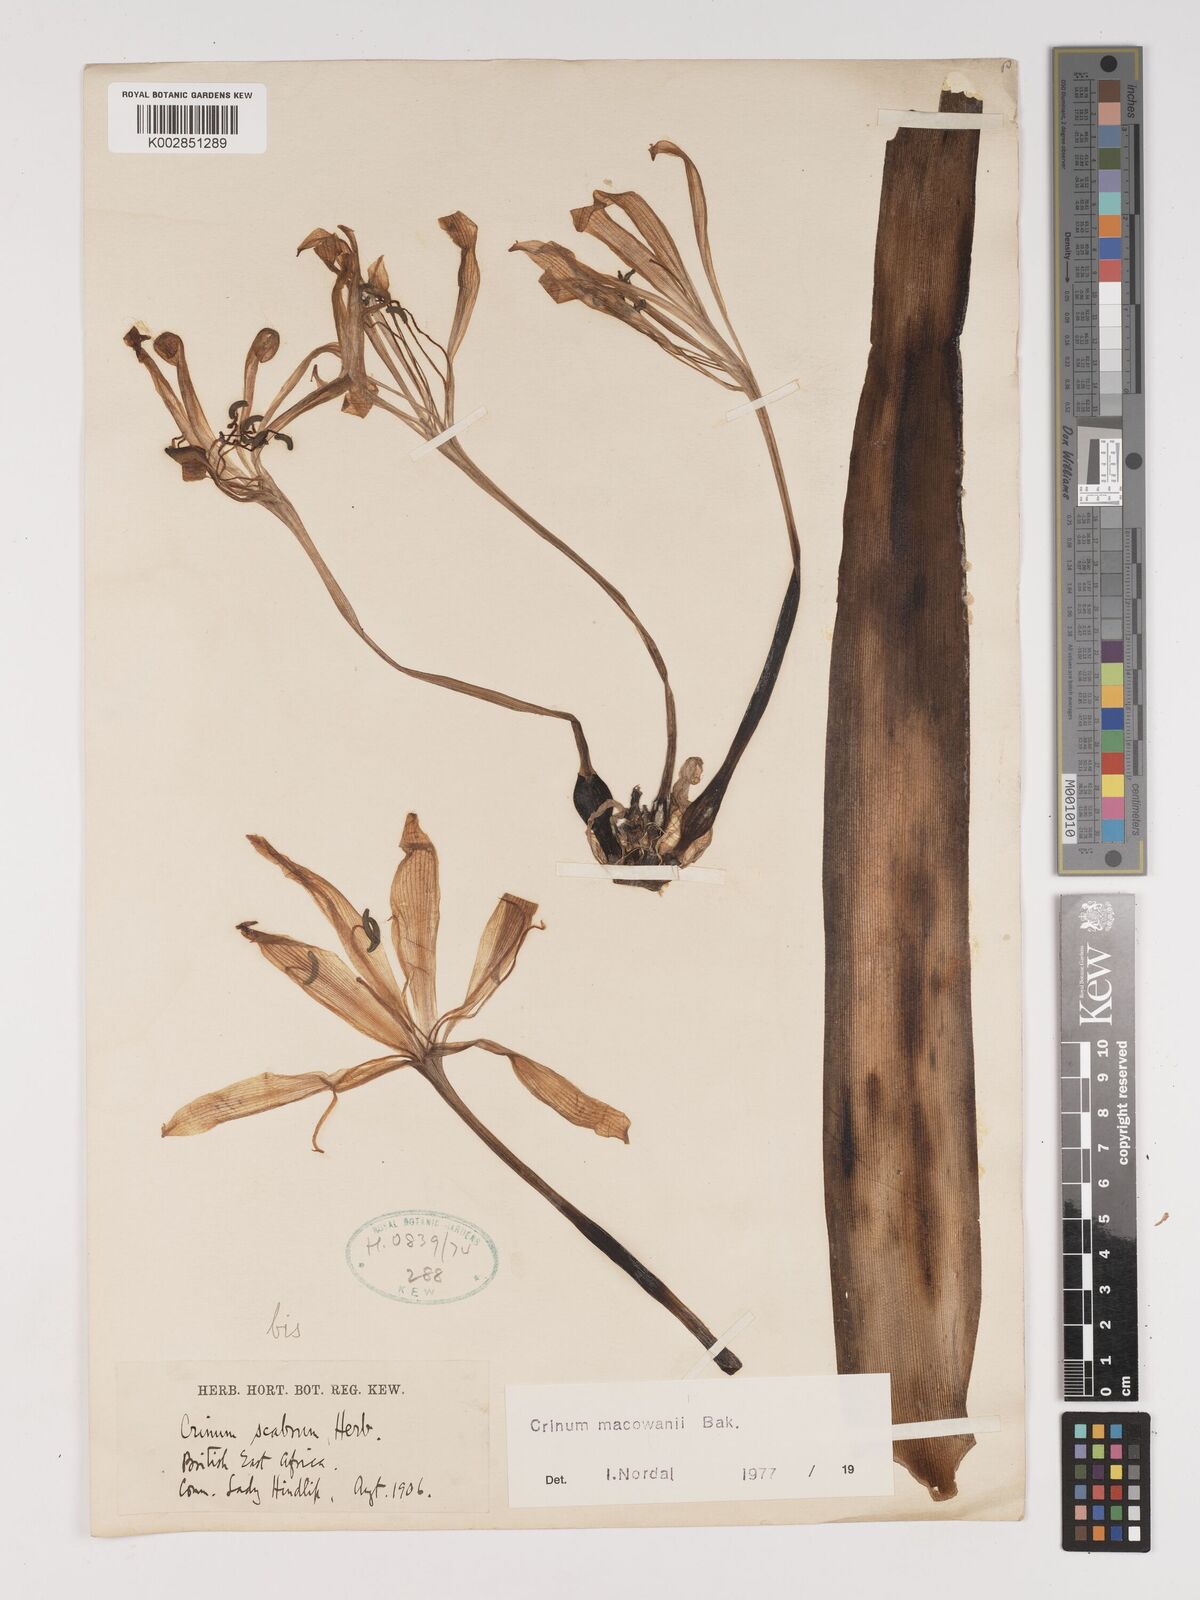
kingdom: Plantae
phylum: Tracheophyta
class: Liliopsida
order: Asparagales
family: Amaryllidaceae
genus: Crinum
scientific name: Crinum macowanii
